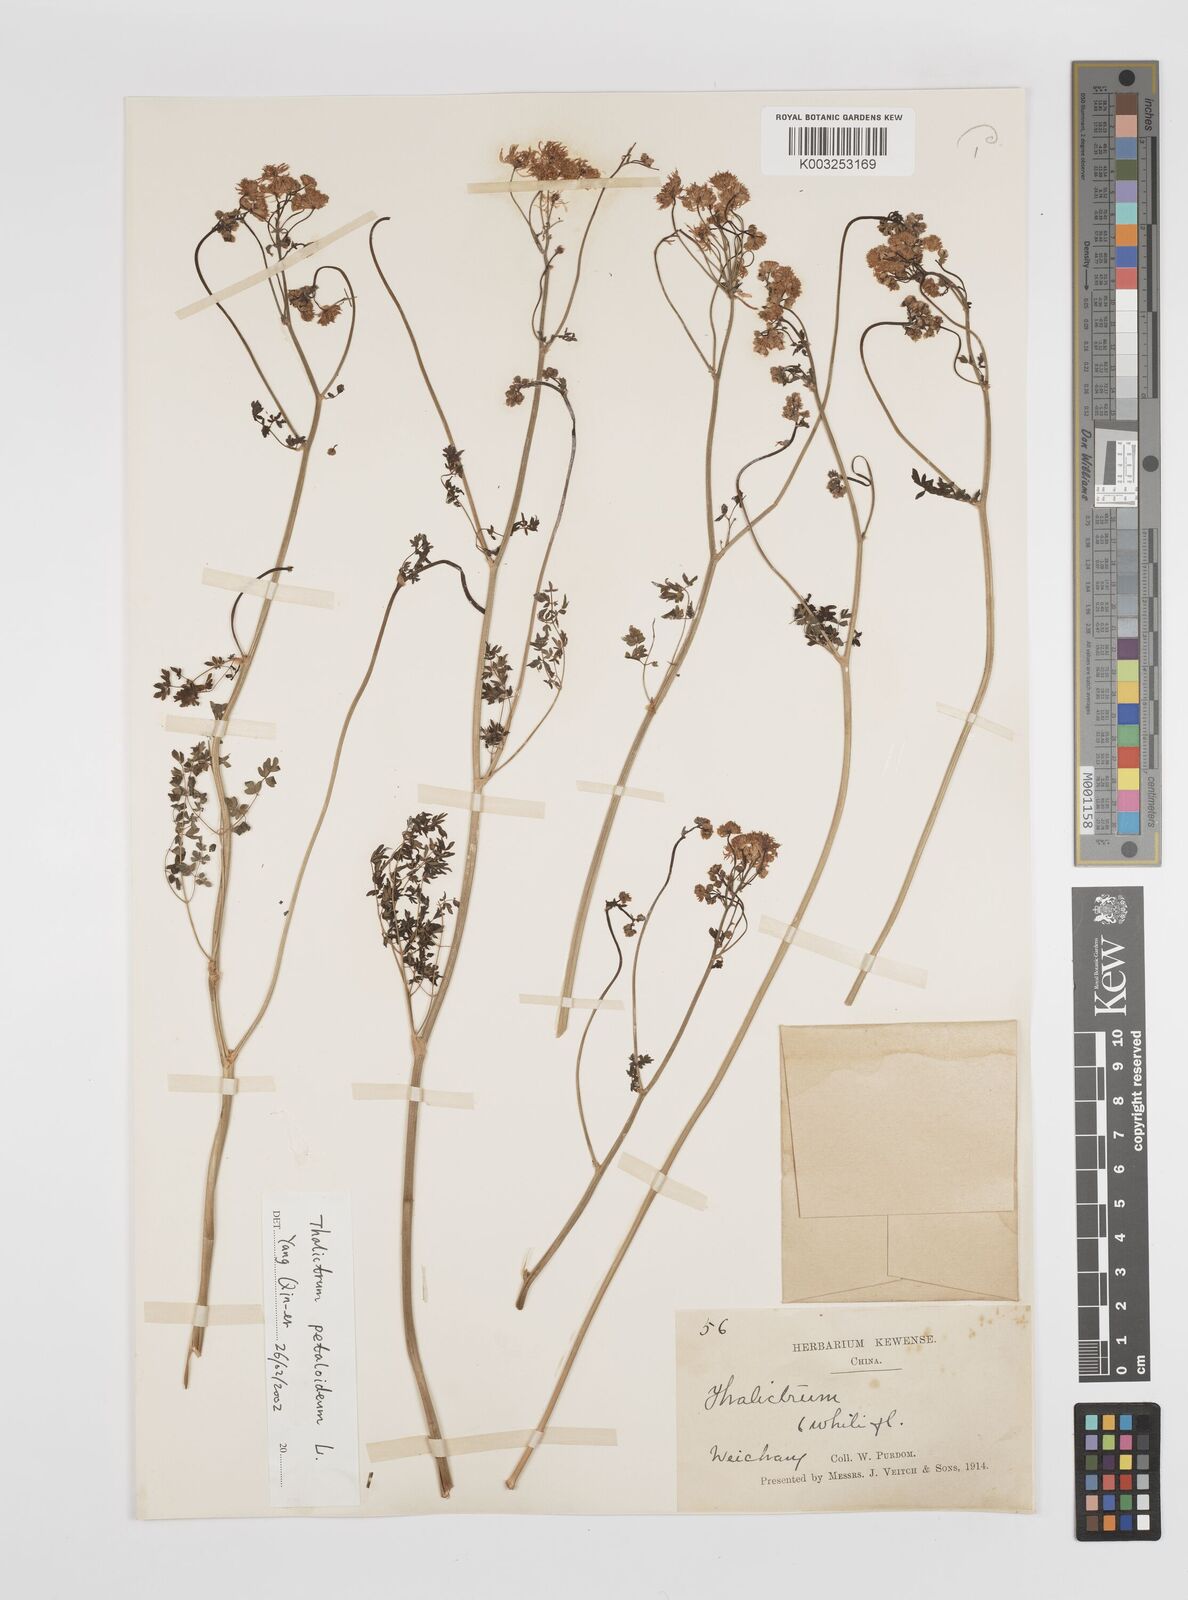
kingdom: Plantae
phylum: Tracheophyta
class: Magnoliopsida
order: Ranunculales
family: Ranunculaceae
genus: Thalictrum
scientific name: Thalictrum petaloideum
